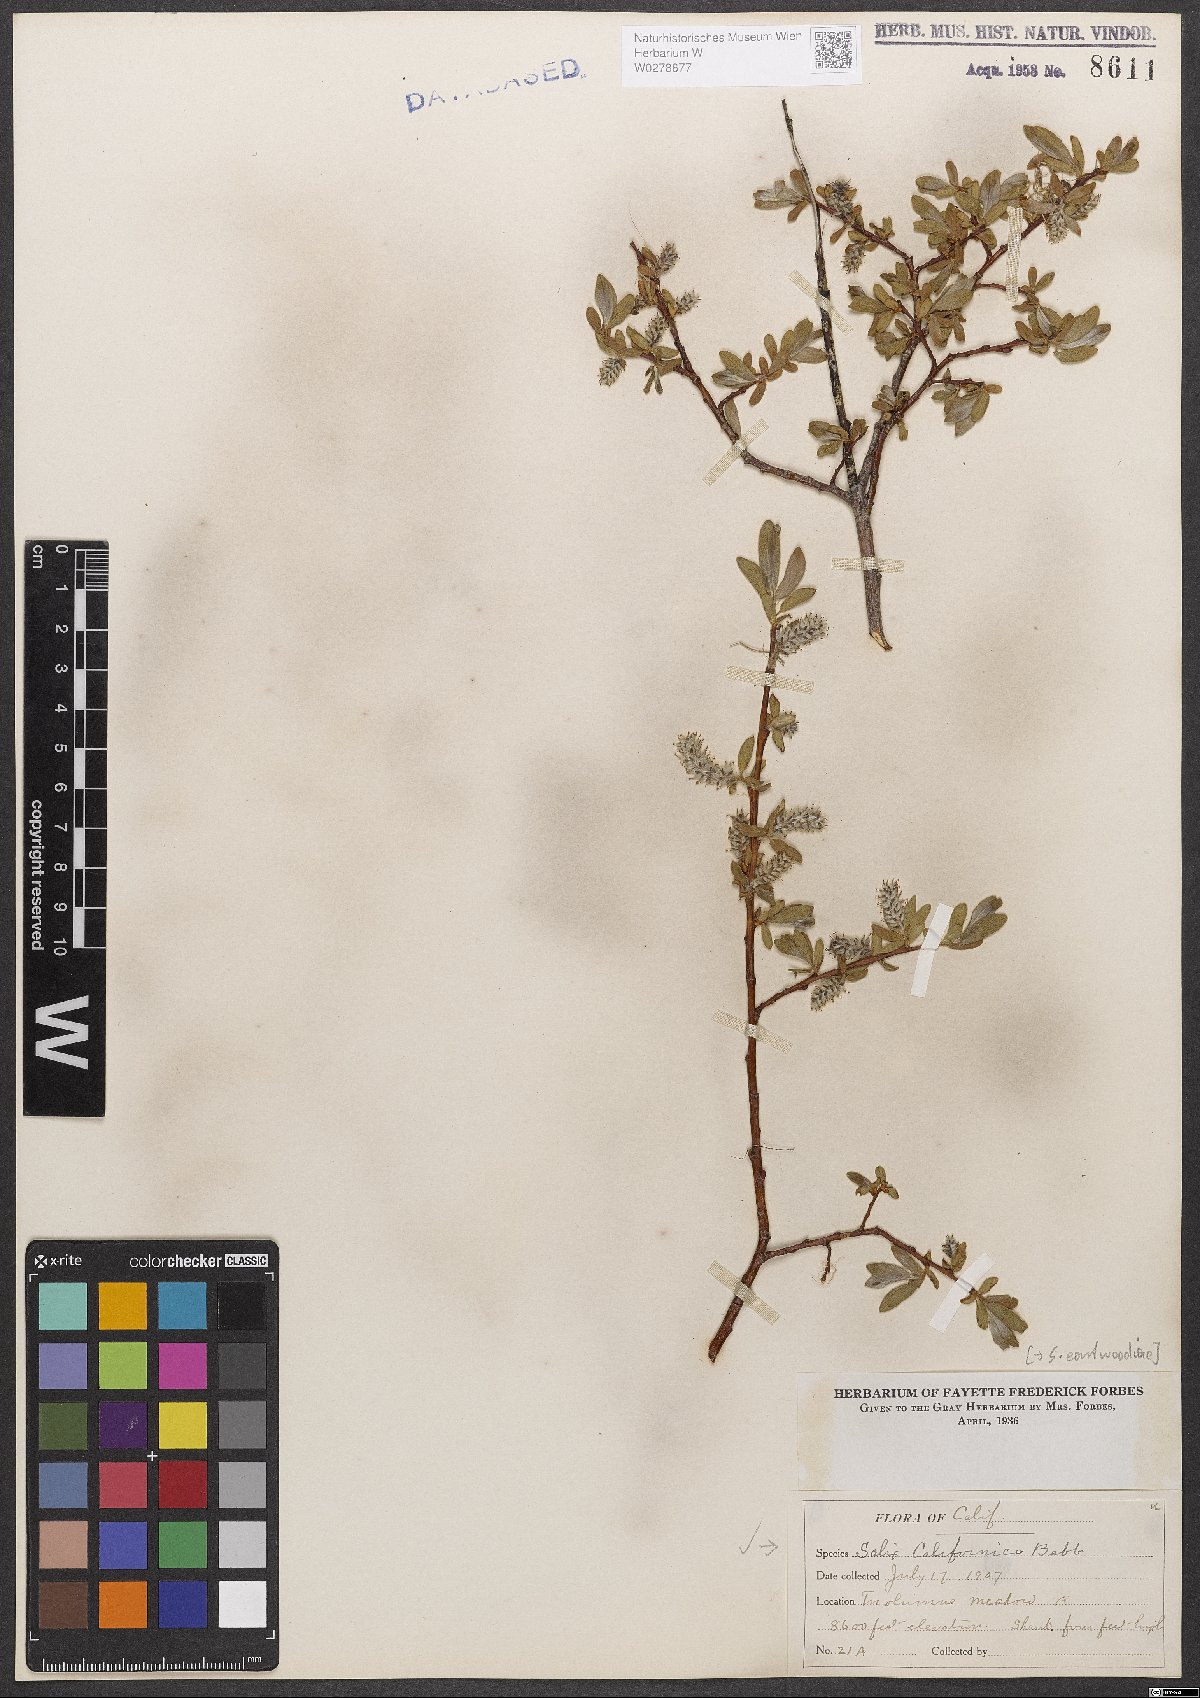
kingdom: Plantae
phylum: Tracheophyta
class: Magnoliopsida
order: Malpighiales
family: Salicaceae
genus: Salix
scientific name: Salix eastwoodiae
